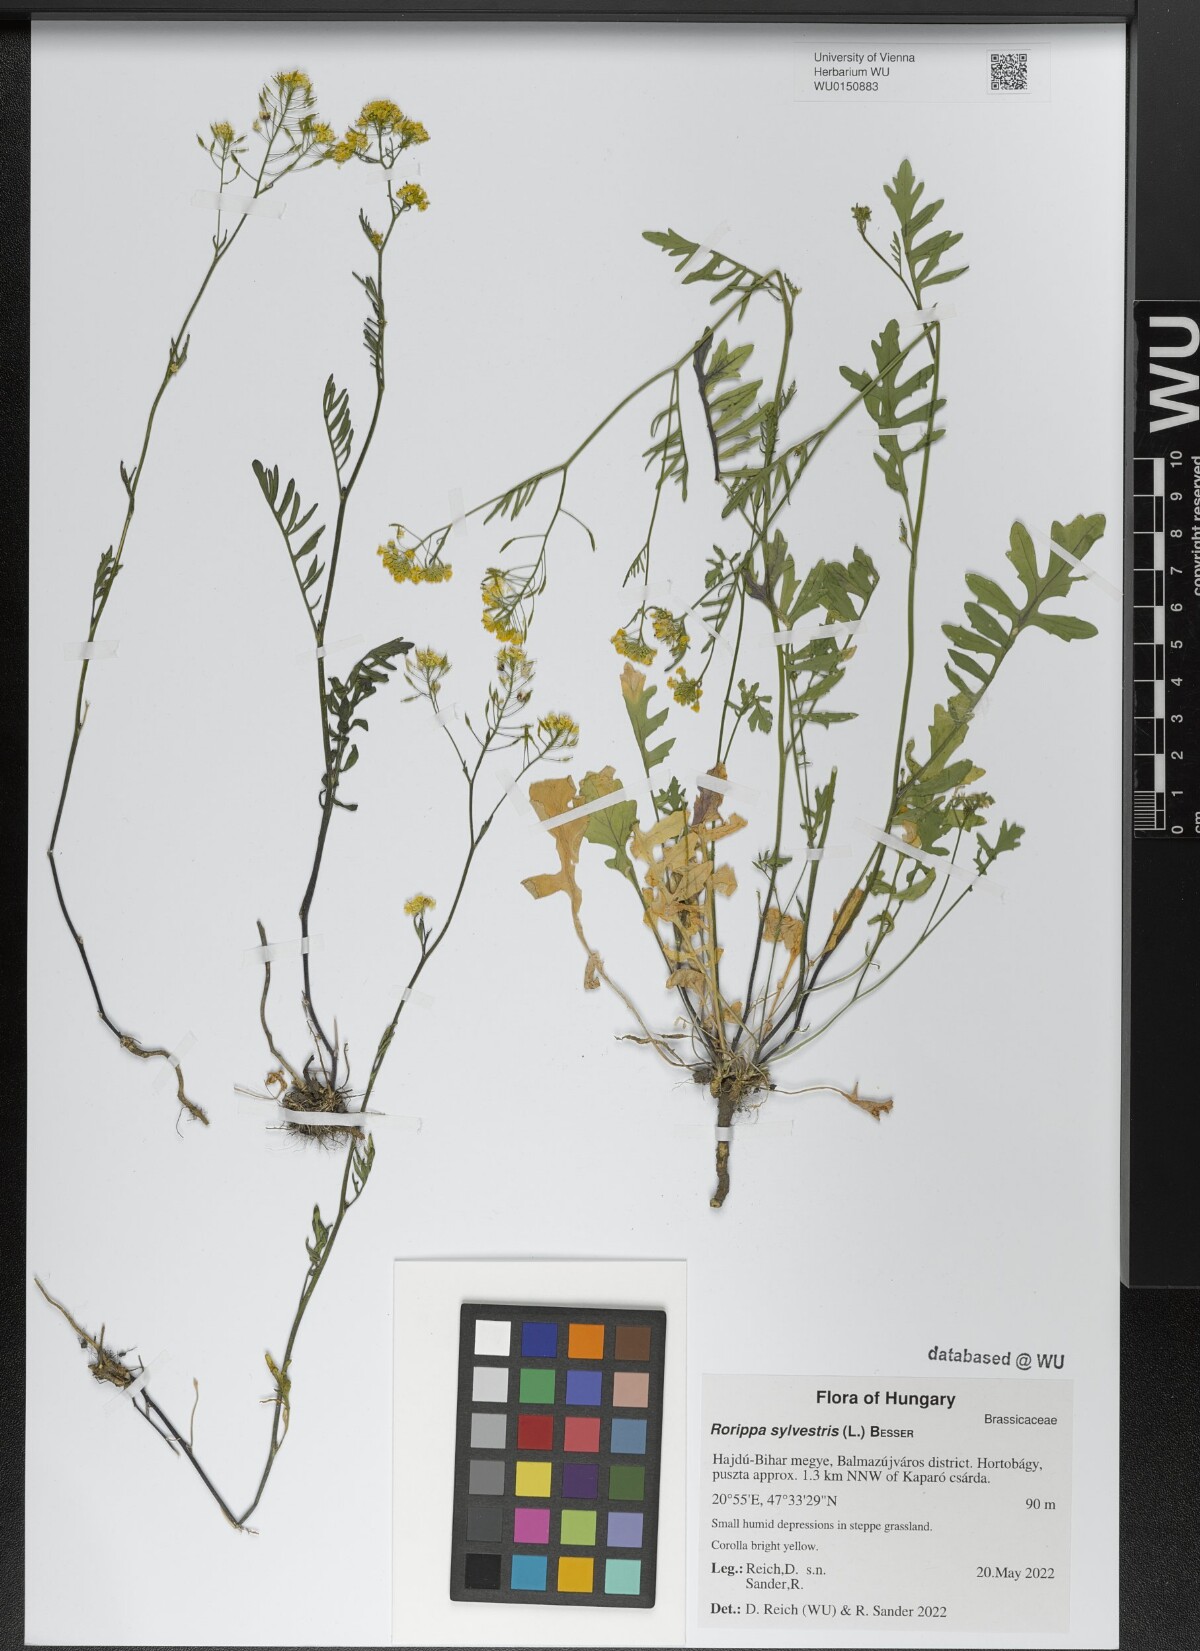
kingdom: Plantae
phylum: Tracheophyta
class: Magnoliopsida
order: Brassicales
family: Brassicaceae
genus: Rorippa
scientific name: Rorippa sylvestris
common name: Creeping yellowcress
